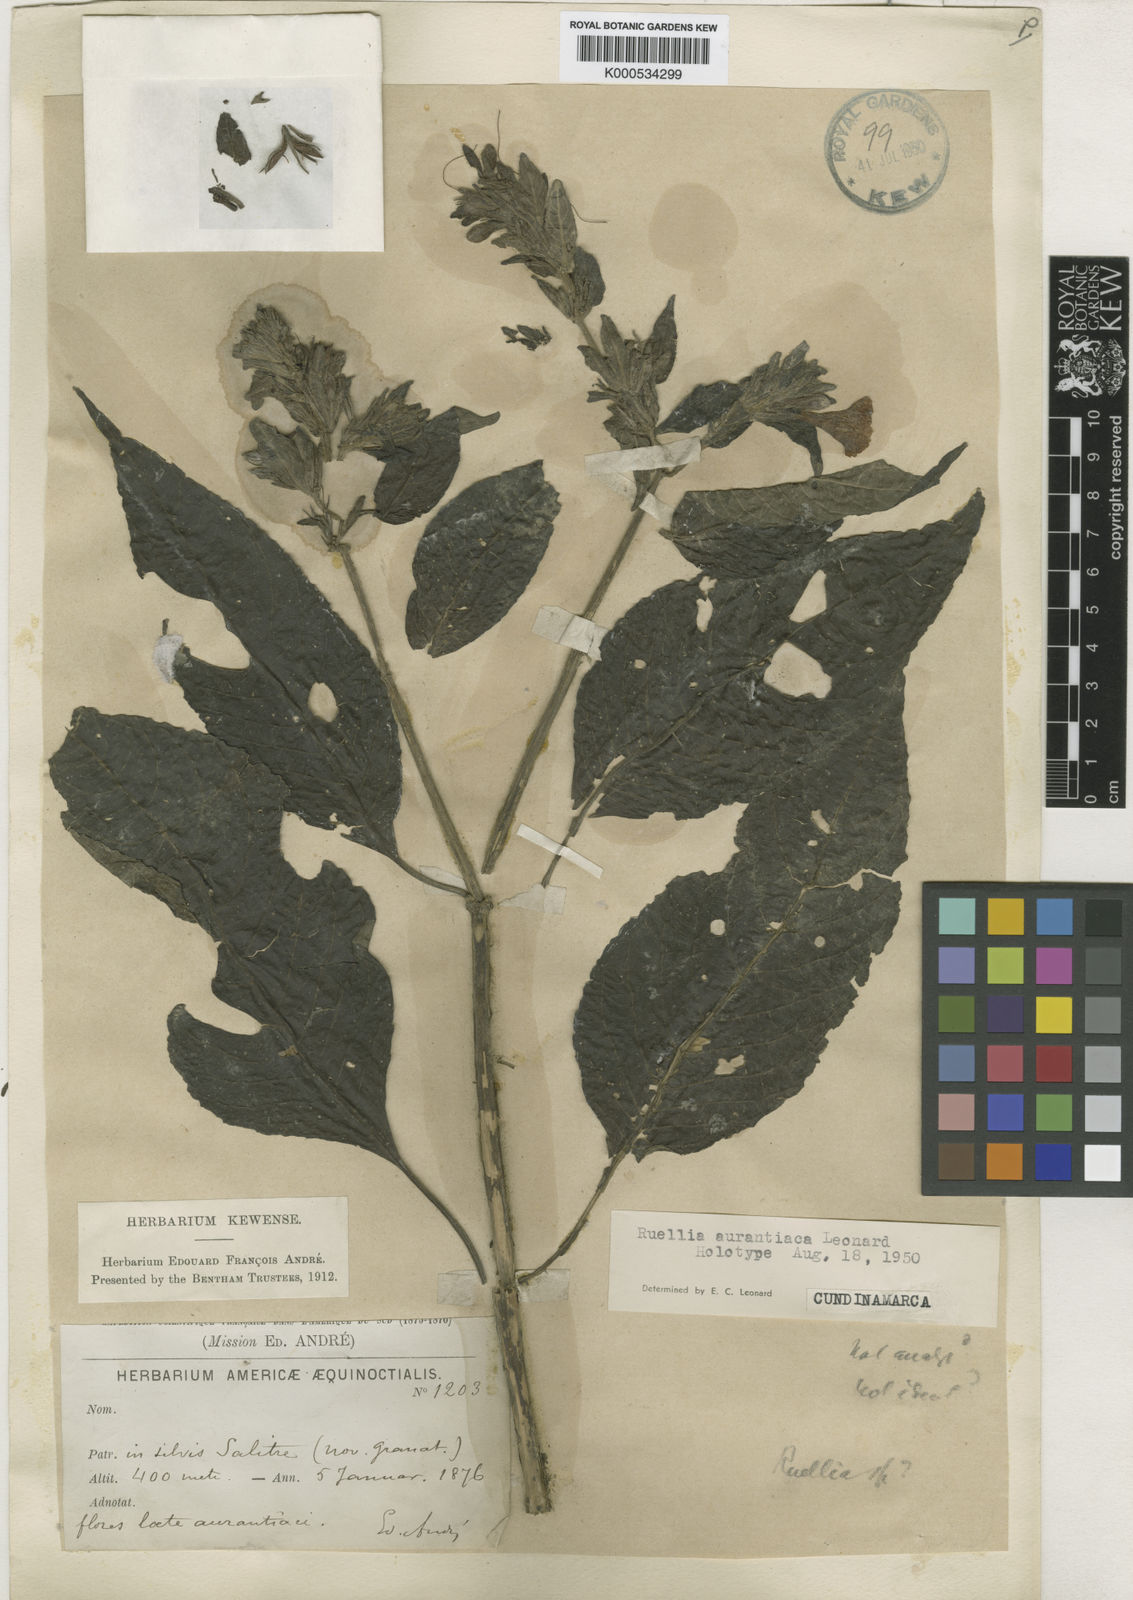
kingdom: Plantae
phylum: Tracheophyta
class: Magnoliopsida
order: Lamiales
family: Acanthaceae
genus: Ruellia
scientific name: Ruellia aurantiaca
